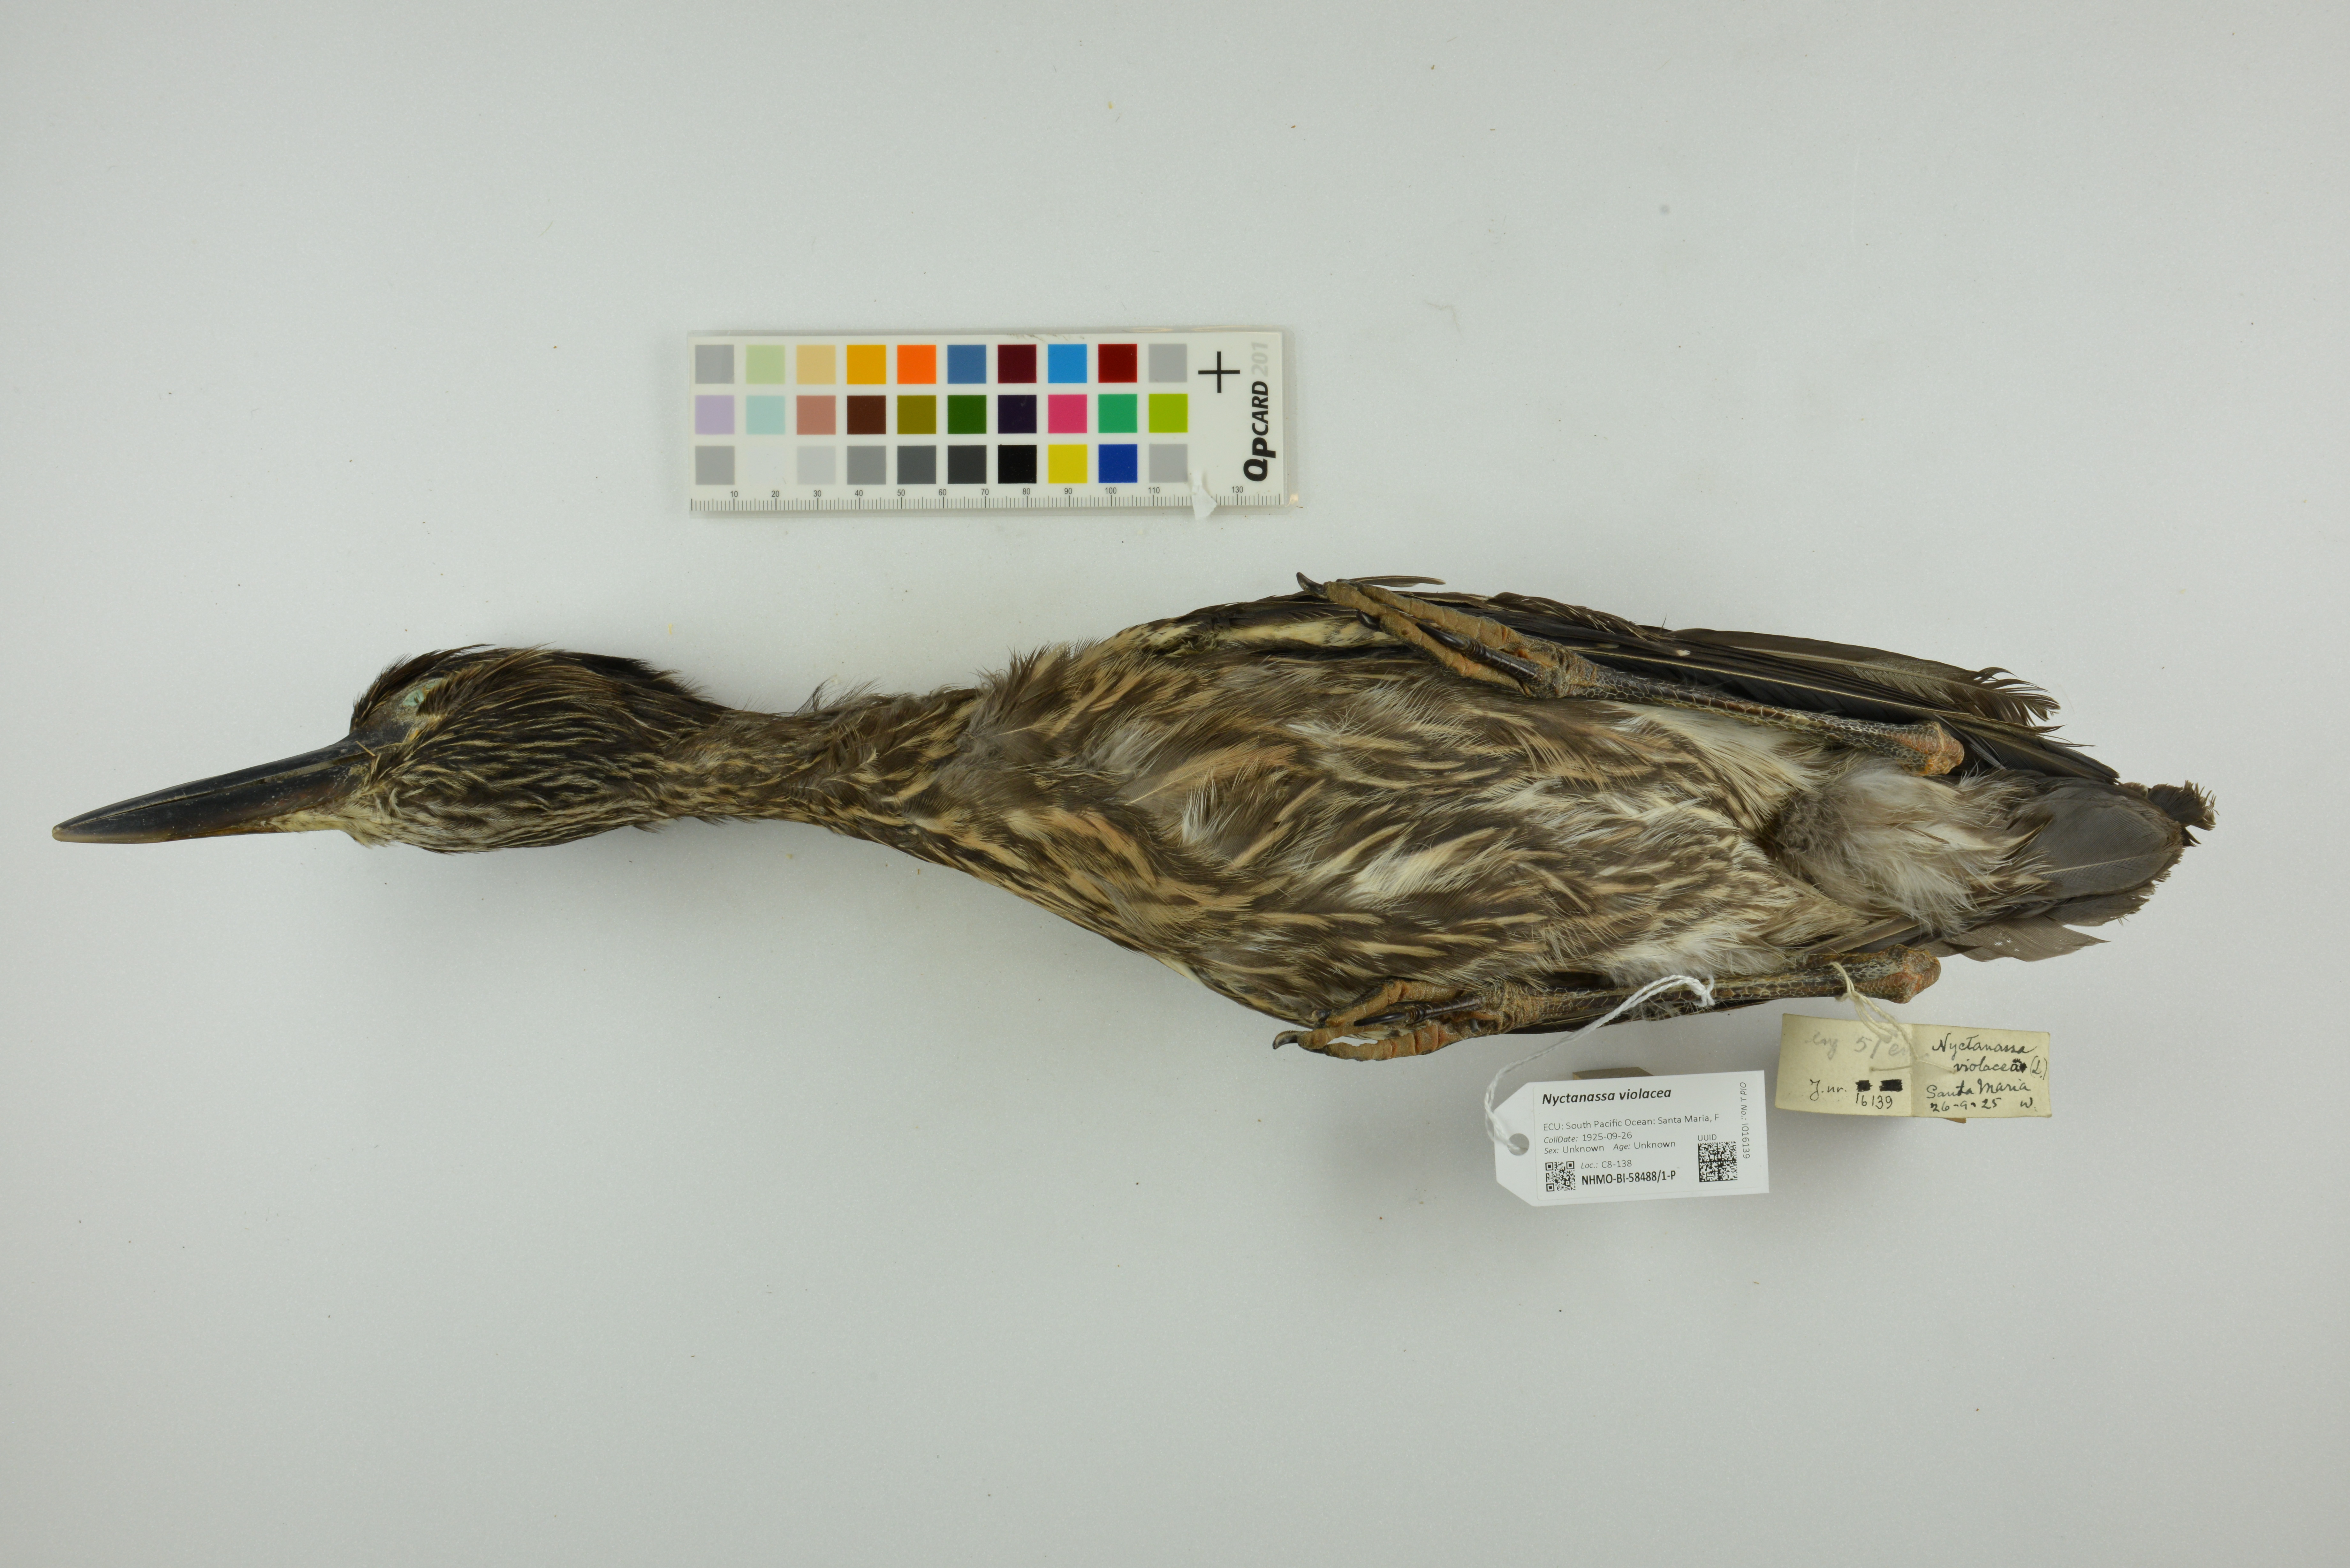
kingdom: Animalia
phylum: Chordata
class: Aves
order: Pelecaniformes
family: Ardeidae
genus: Nyctanassa
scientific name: Nyctanassa violacea
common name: Yellow-crowned night heron
